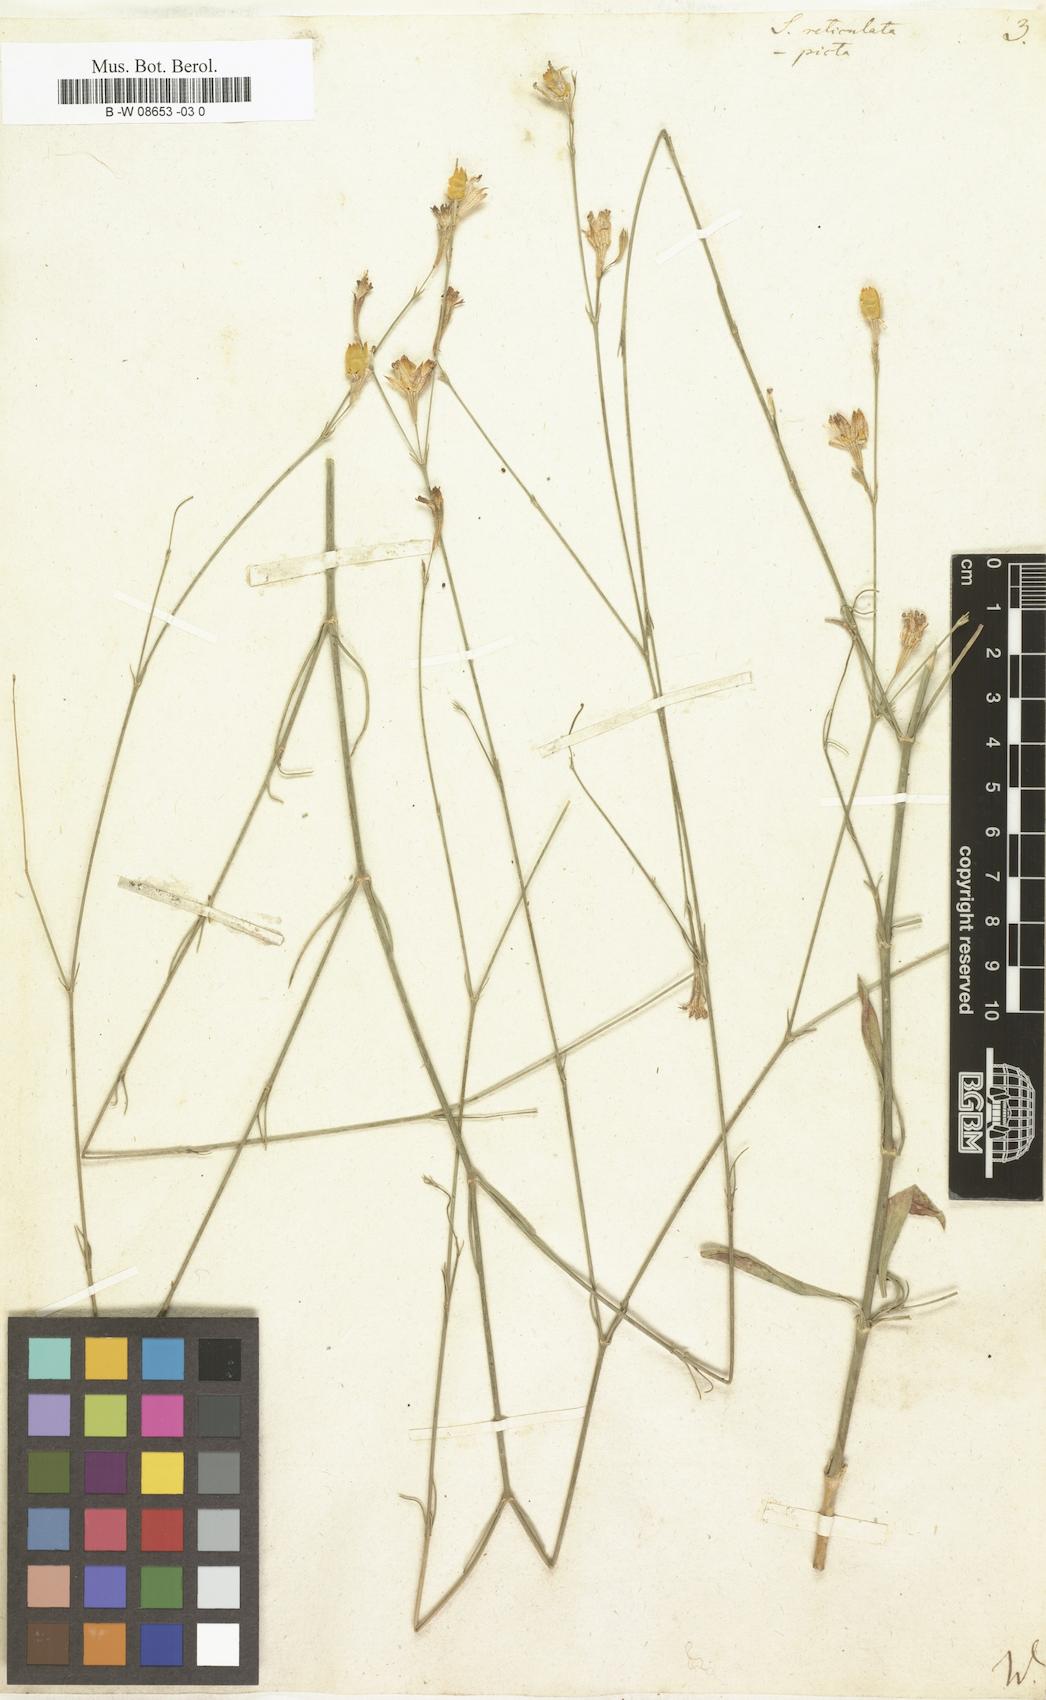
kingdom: Plantae
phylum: Tracheophyta
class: Magnoliopsida
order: Caryophyllales
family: Caryophyllaceae
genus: Silene
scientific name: Silene reticulata
